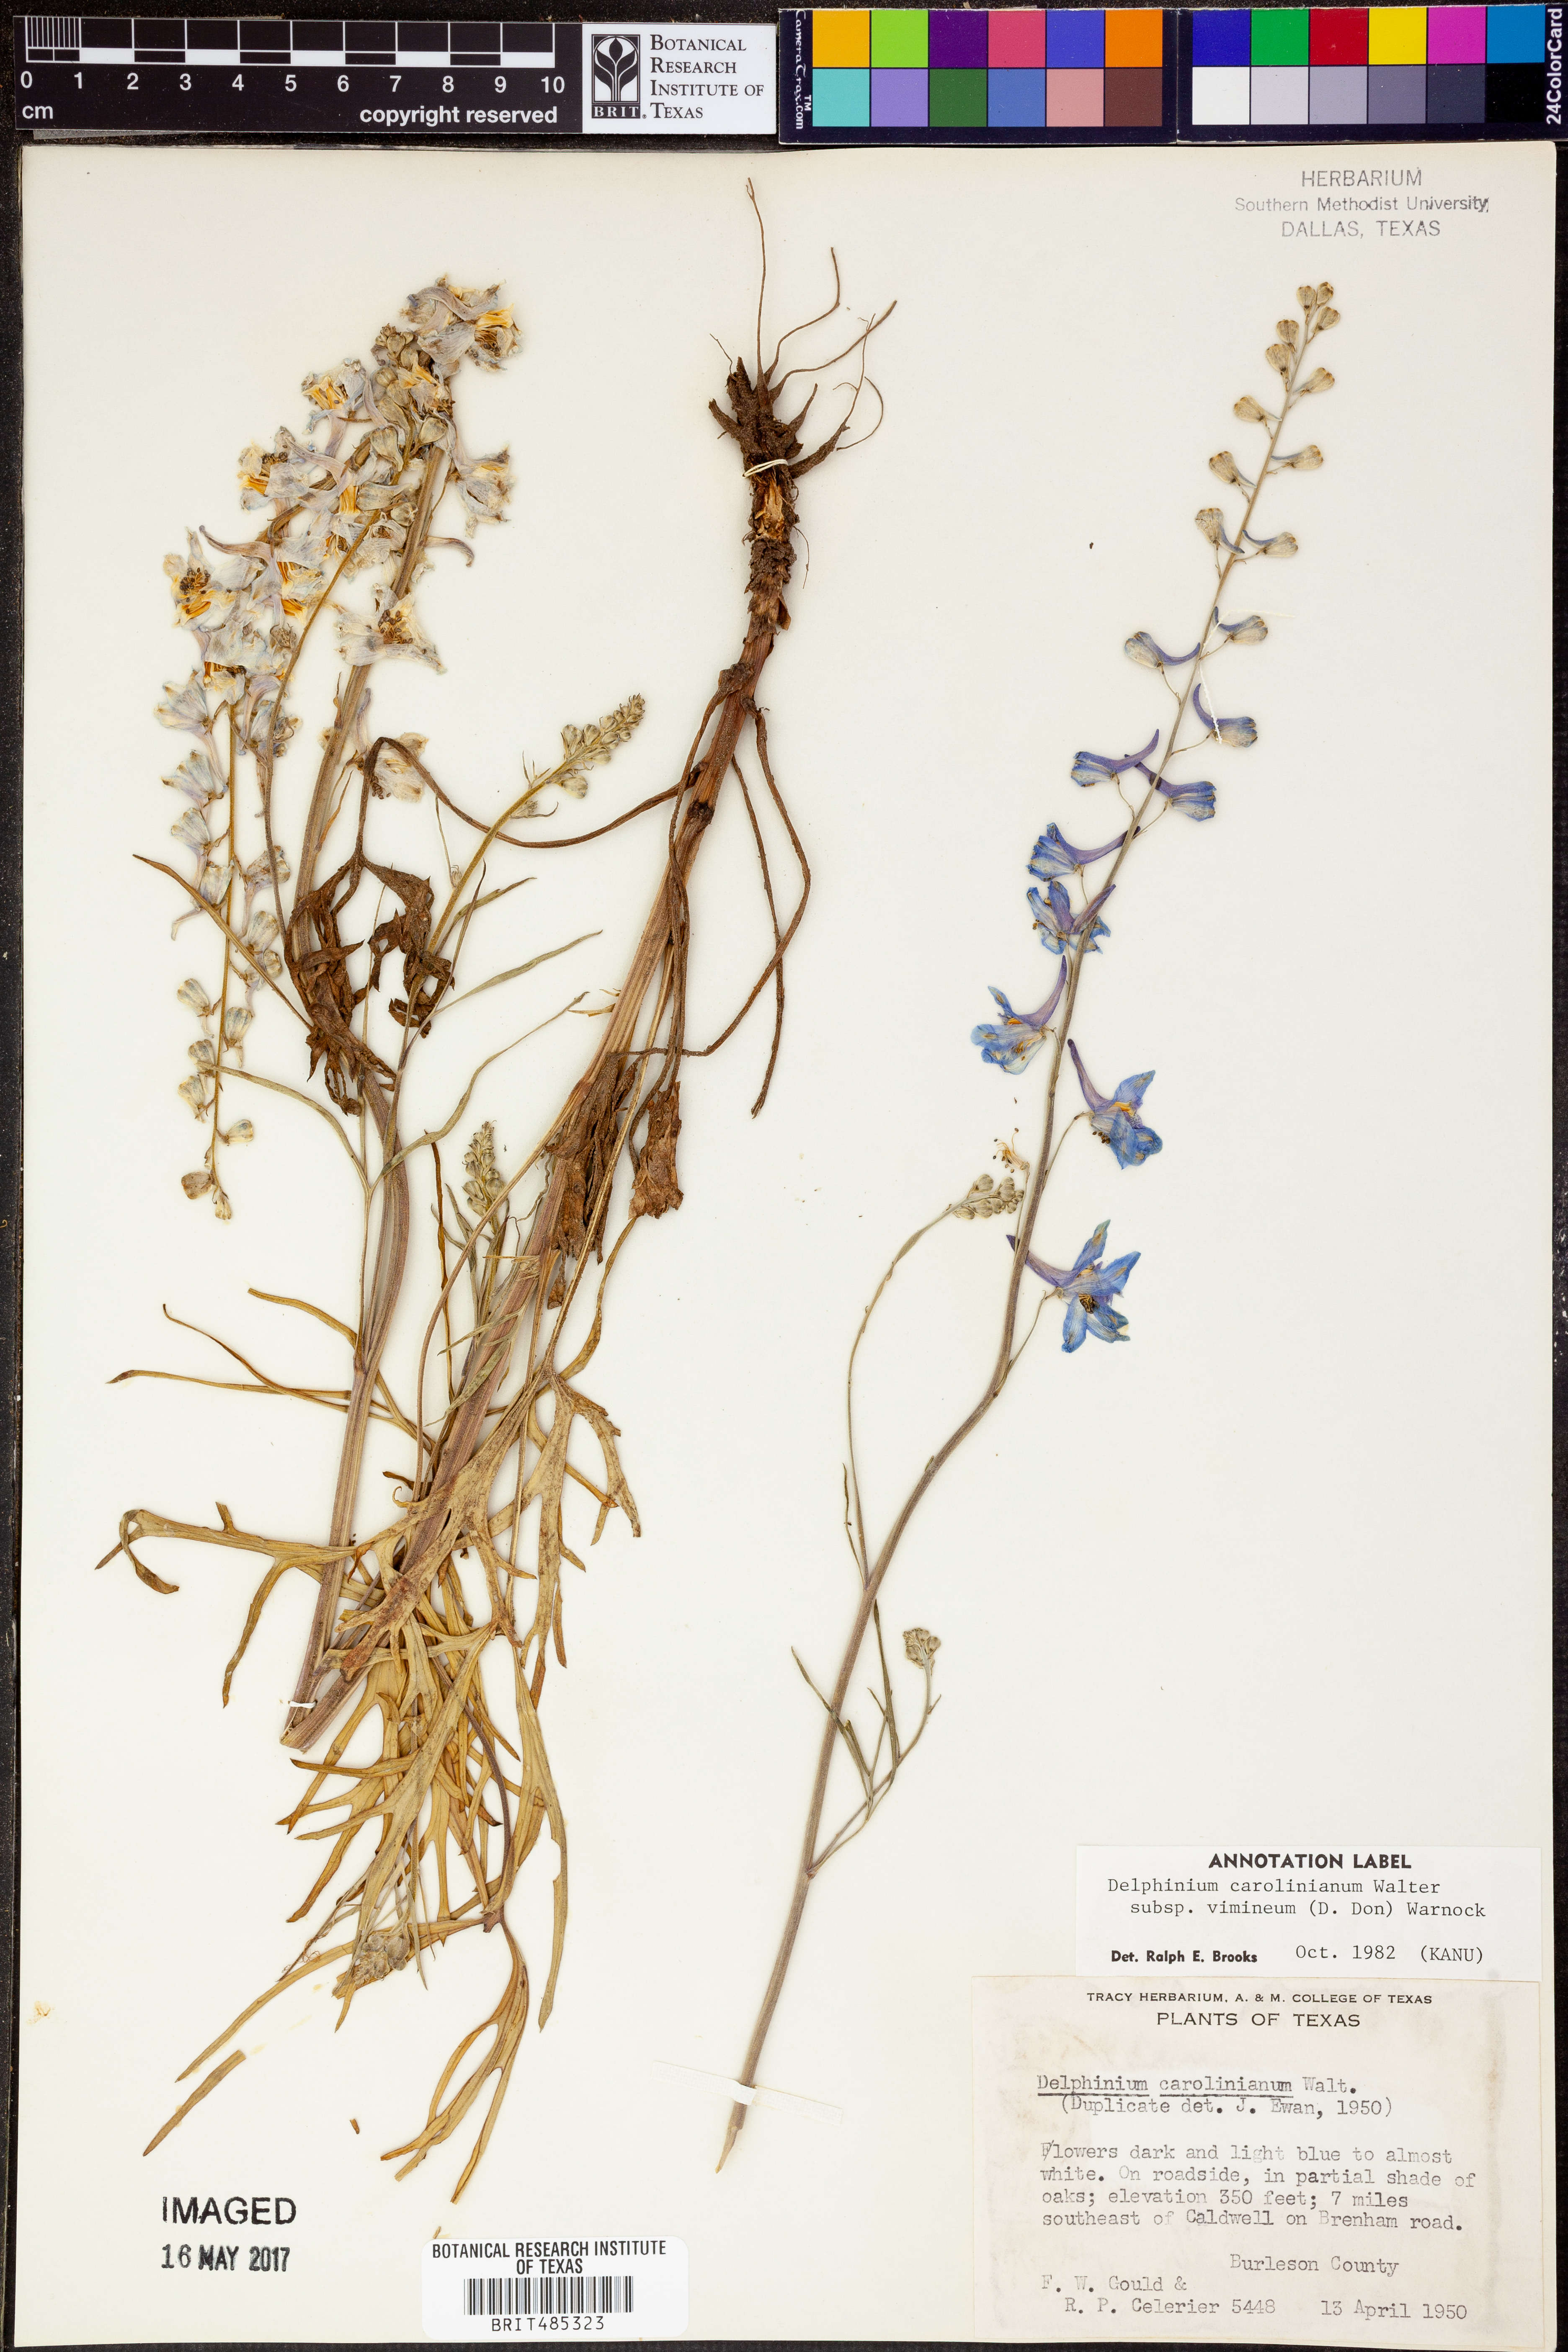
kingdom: Plantae
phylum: Tracheophyta
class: Magnoliopsida
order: Ranunculales
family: Ranunculaceae
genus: Delphinium
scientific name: Delphinium carolinianum
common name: Carolina larkspur
